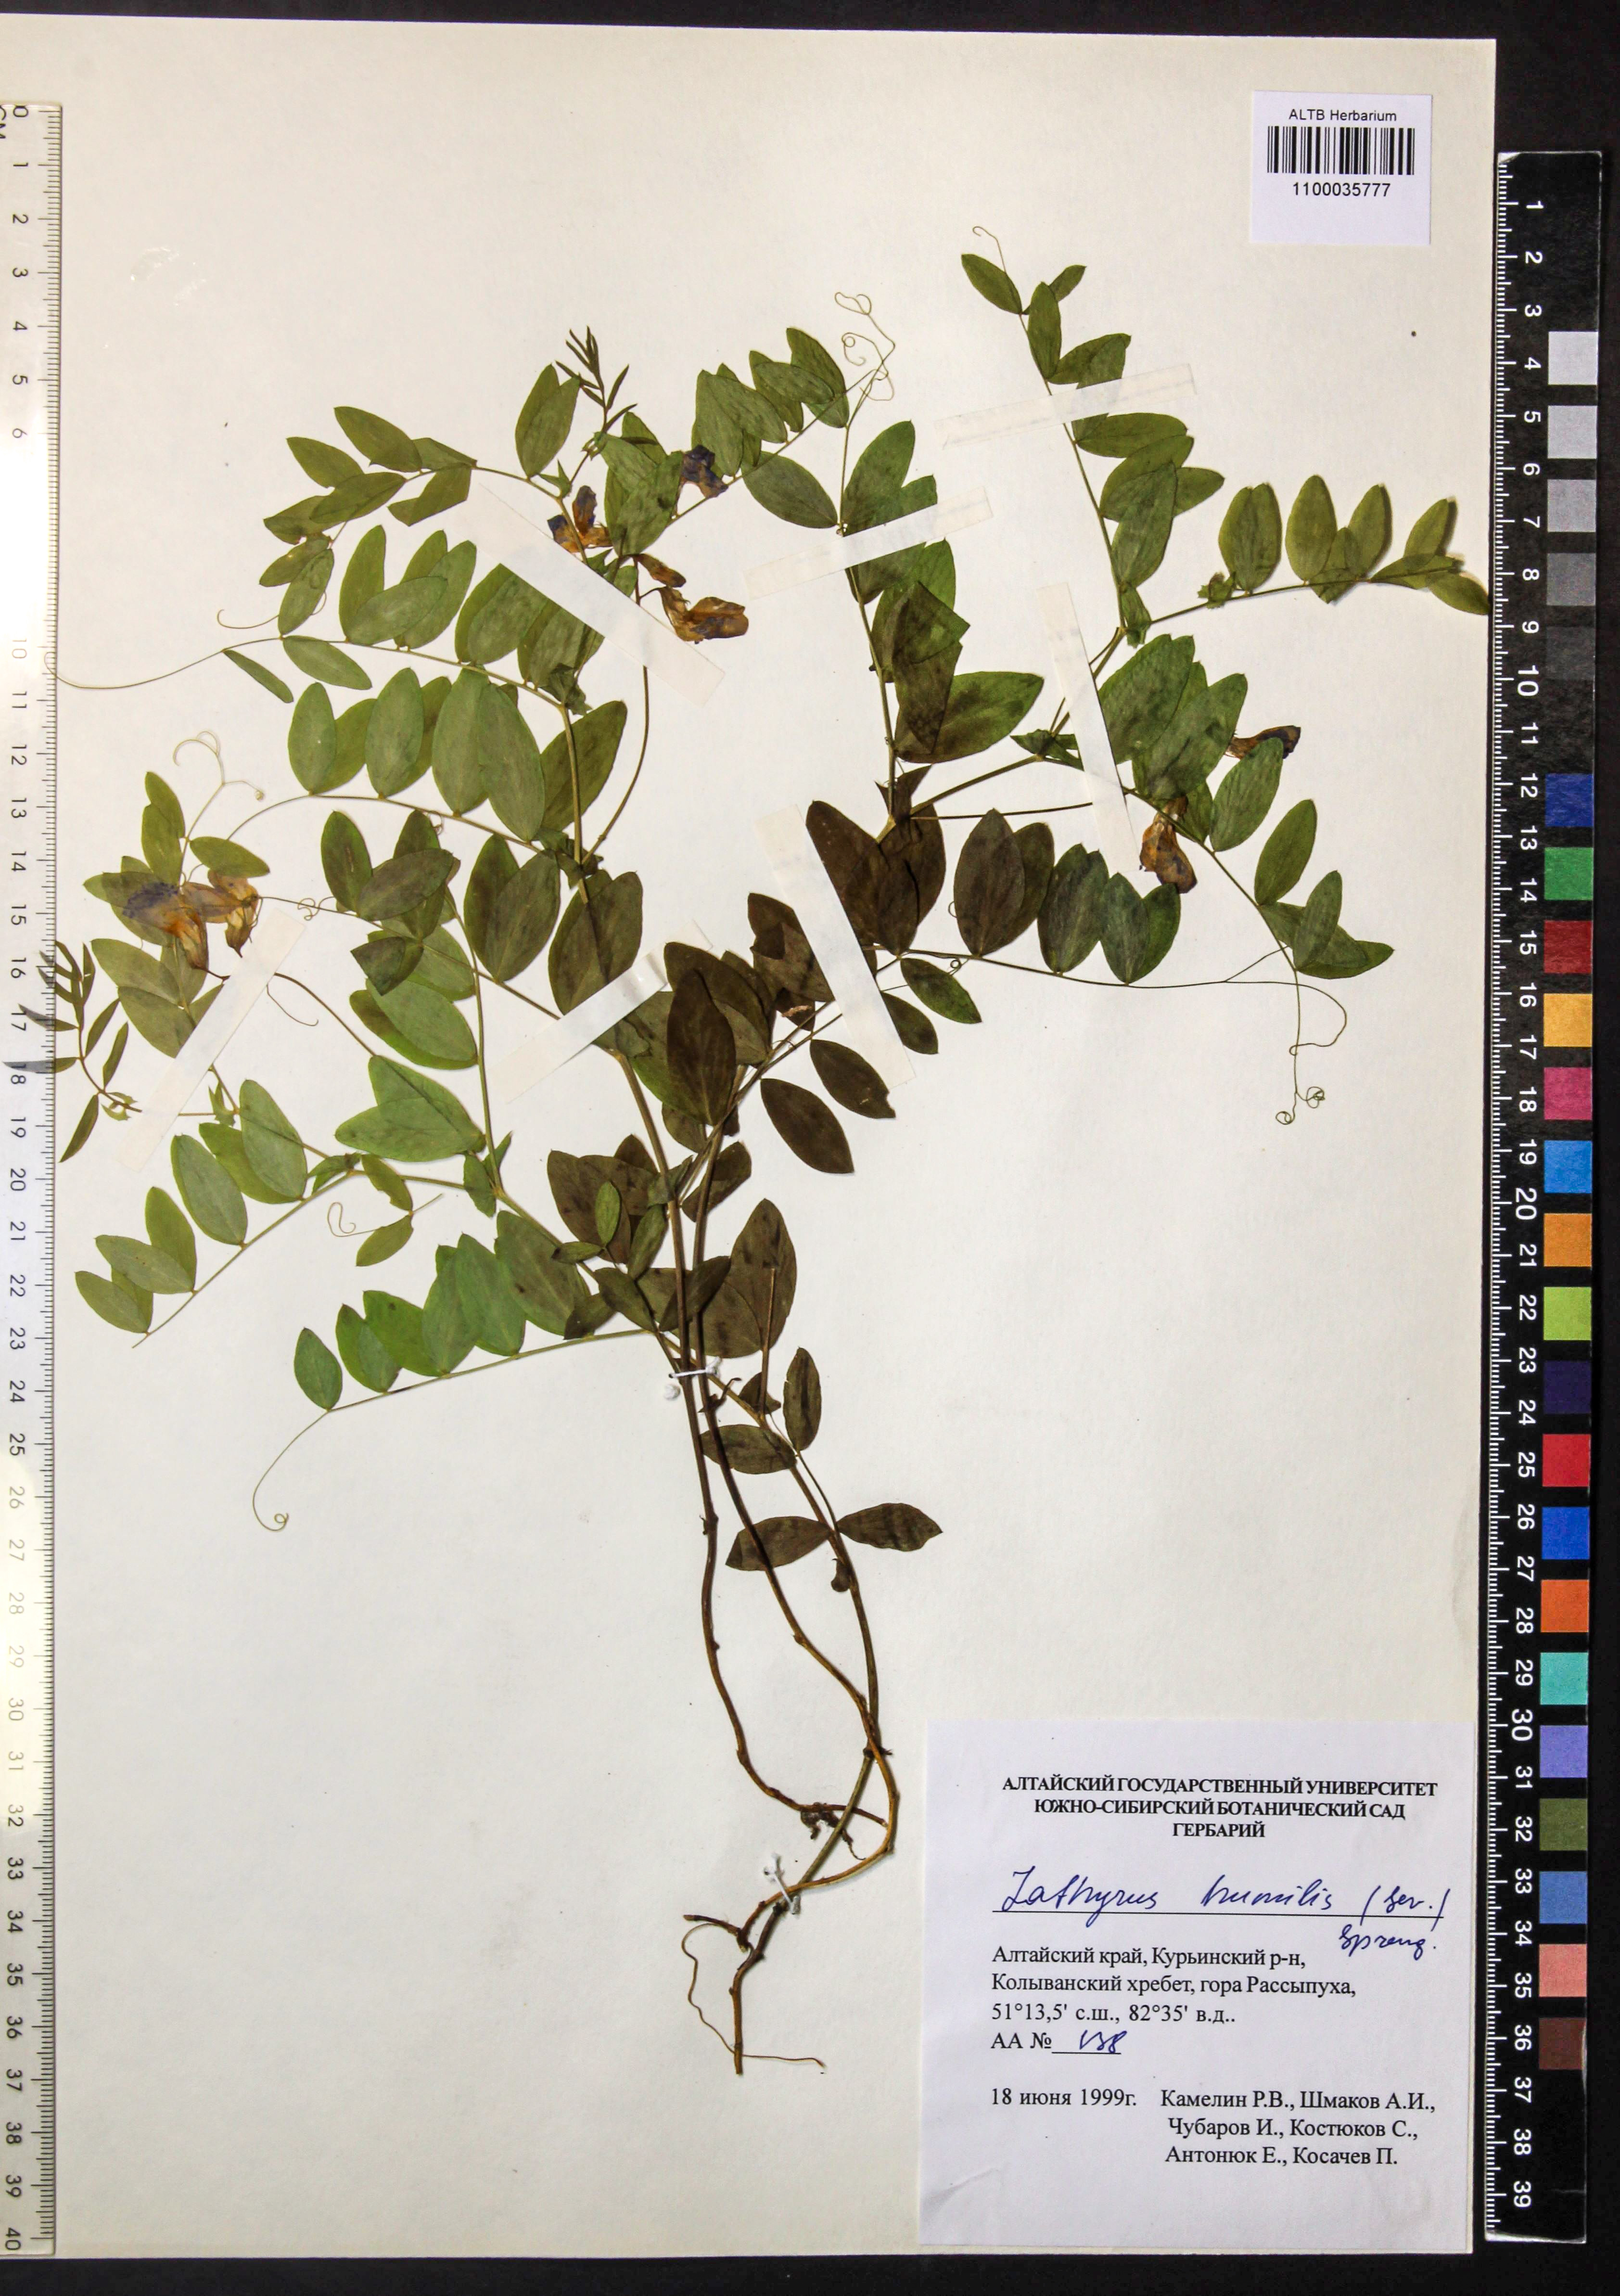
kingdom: Plantae
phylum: Tracheophyta
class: Magnoliopsida
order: Fabales
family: Fabaceae
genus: Lathyrus
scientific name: Lathyrus humilis
